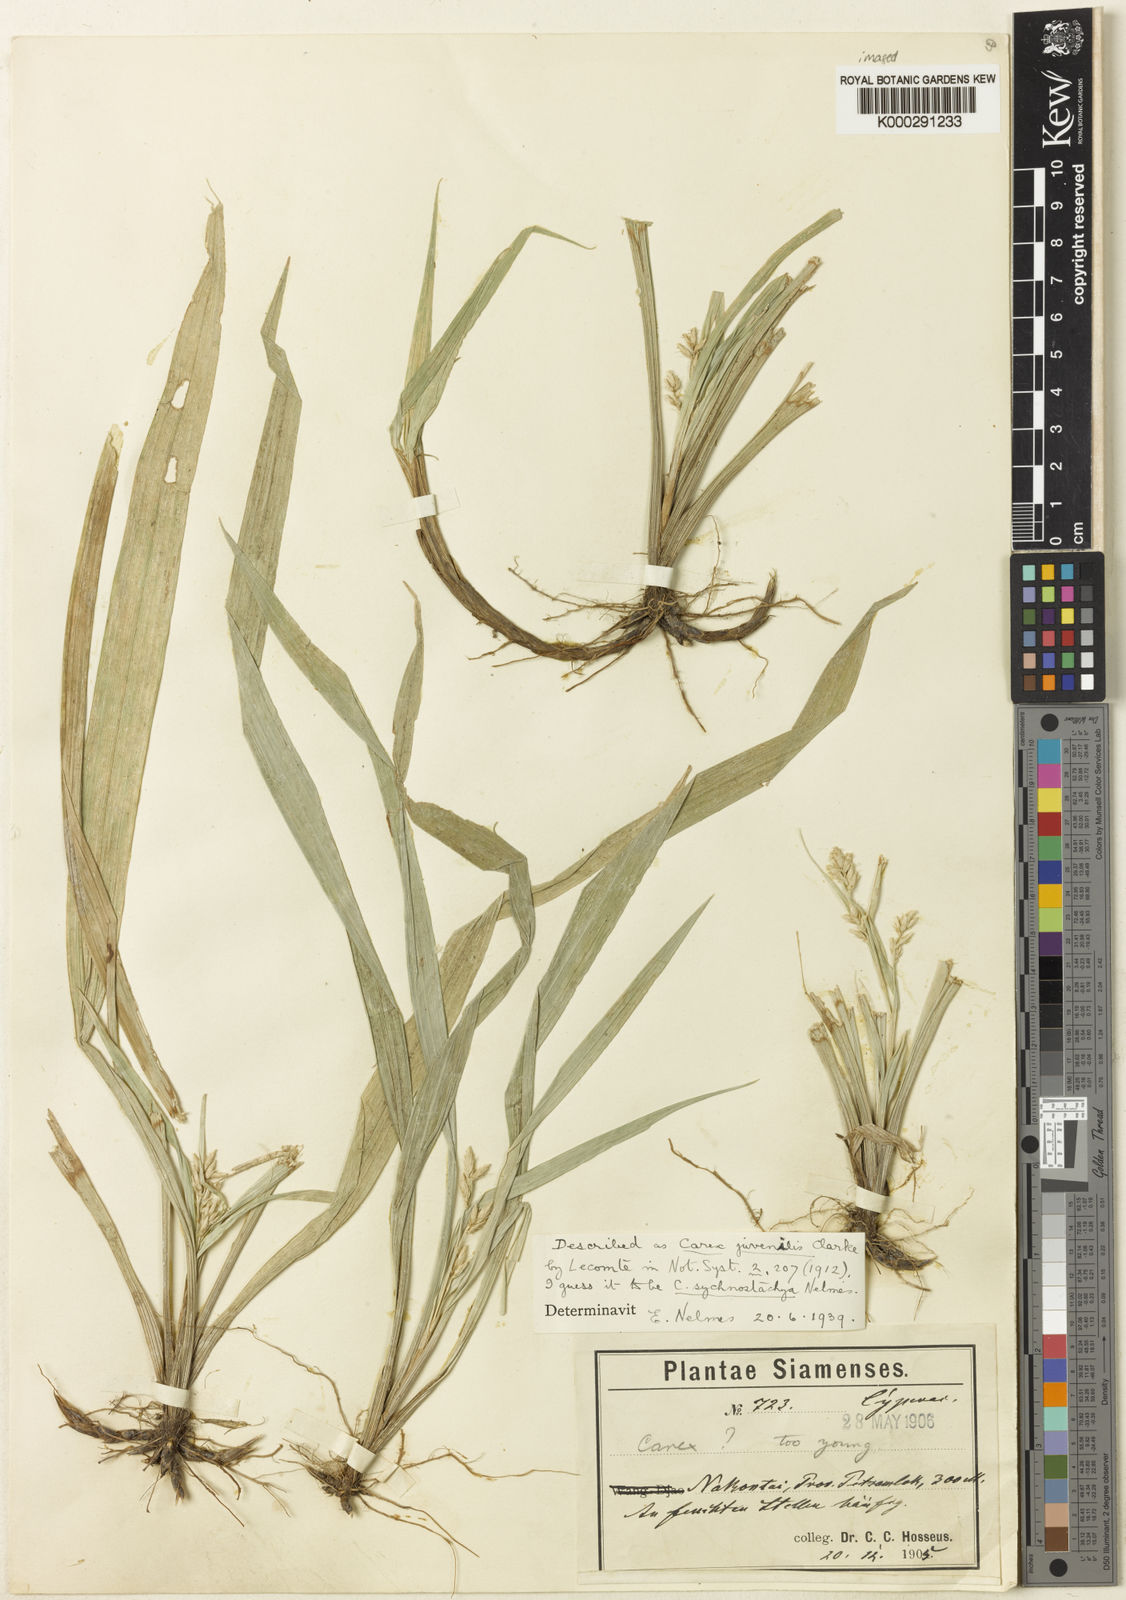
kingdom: Plantae
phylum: Tracheophyta
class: Liliopsida
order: Poales
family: Cyperaceae
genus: Carex
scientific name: Carex juvenilis
